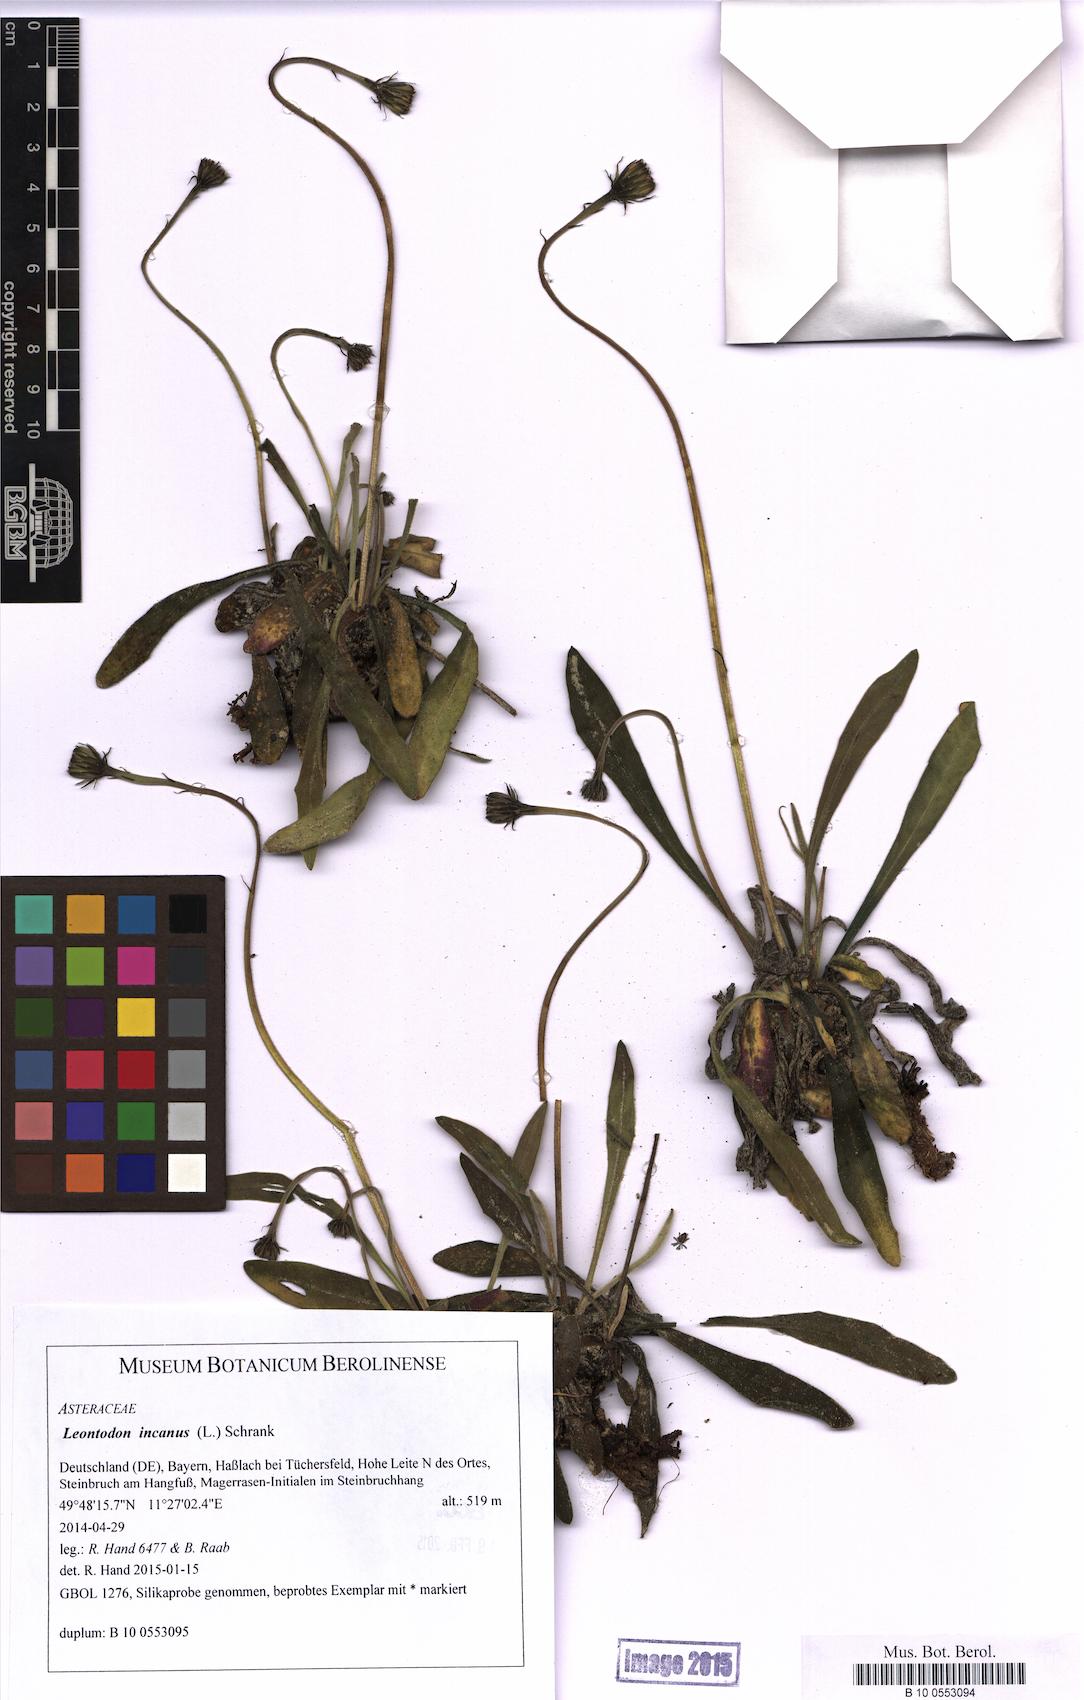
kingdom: Plantae
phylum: Tracheophyta
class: Magnoliopsida
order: Asterales
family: Asteraceae
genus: Leontodon
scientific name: Leontodon incanus
